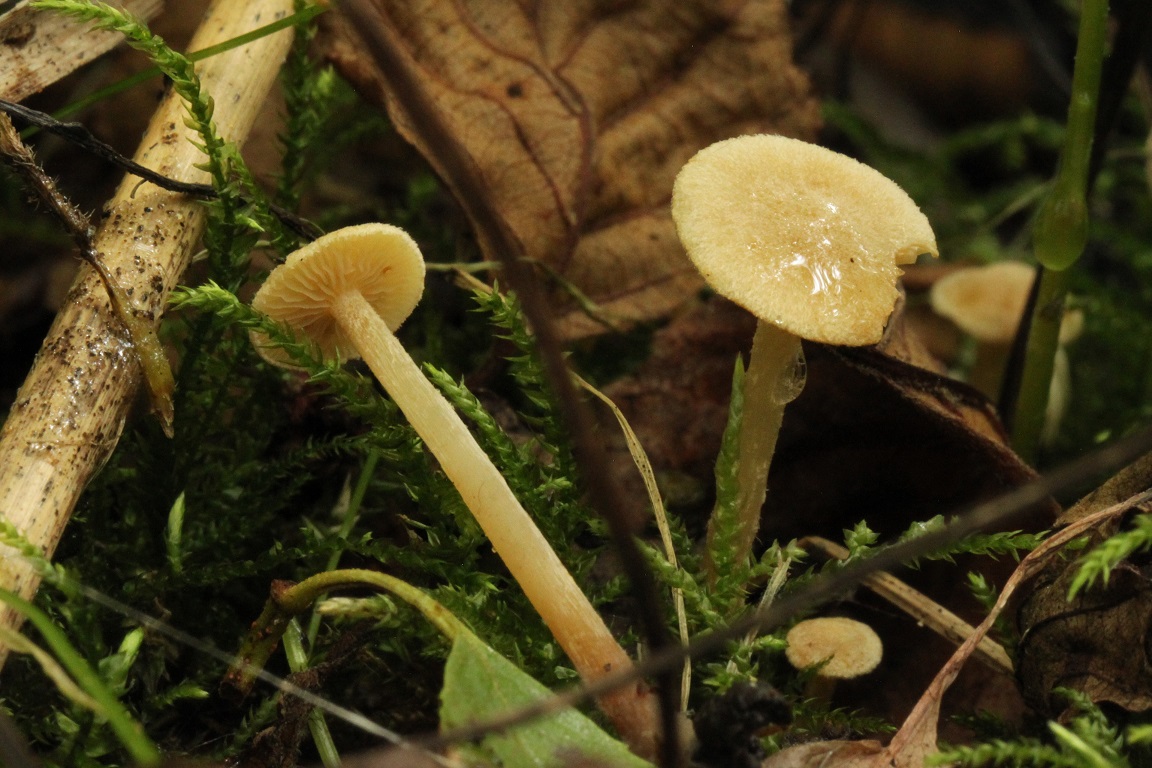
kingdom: Fungi
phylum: Basidiomycota
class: Agaricomycetes
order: Agaricales
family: Hymenogastraceae
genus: Naucoria
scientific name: Naucoria escharioides
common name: lys elle-knaphat
